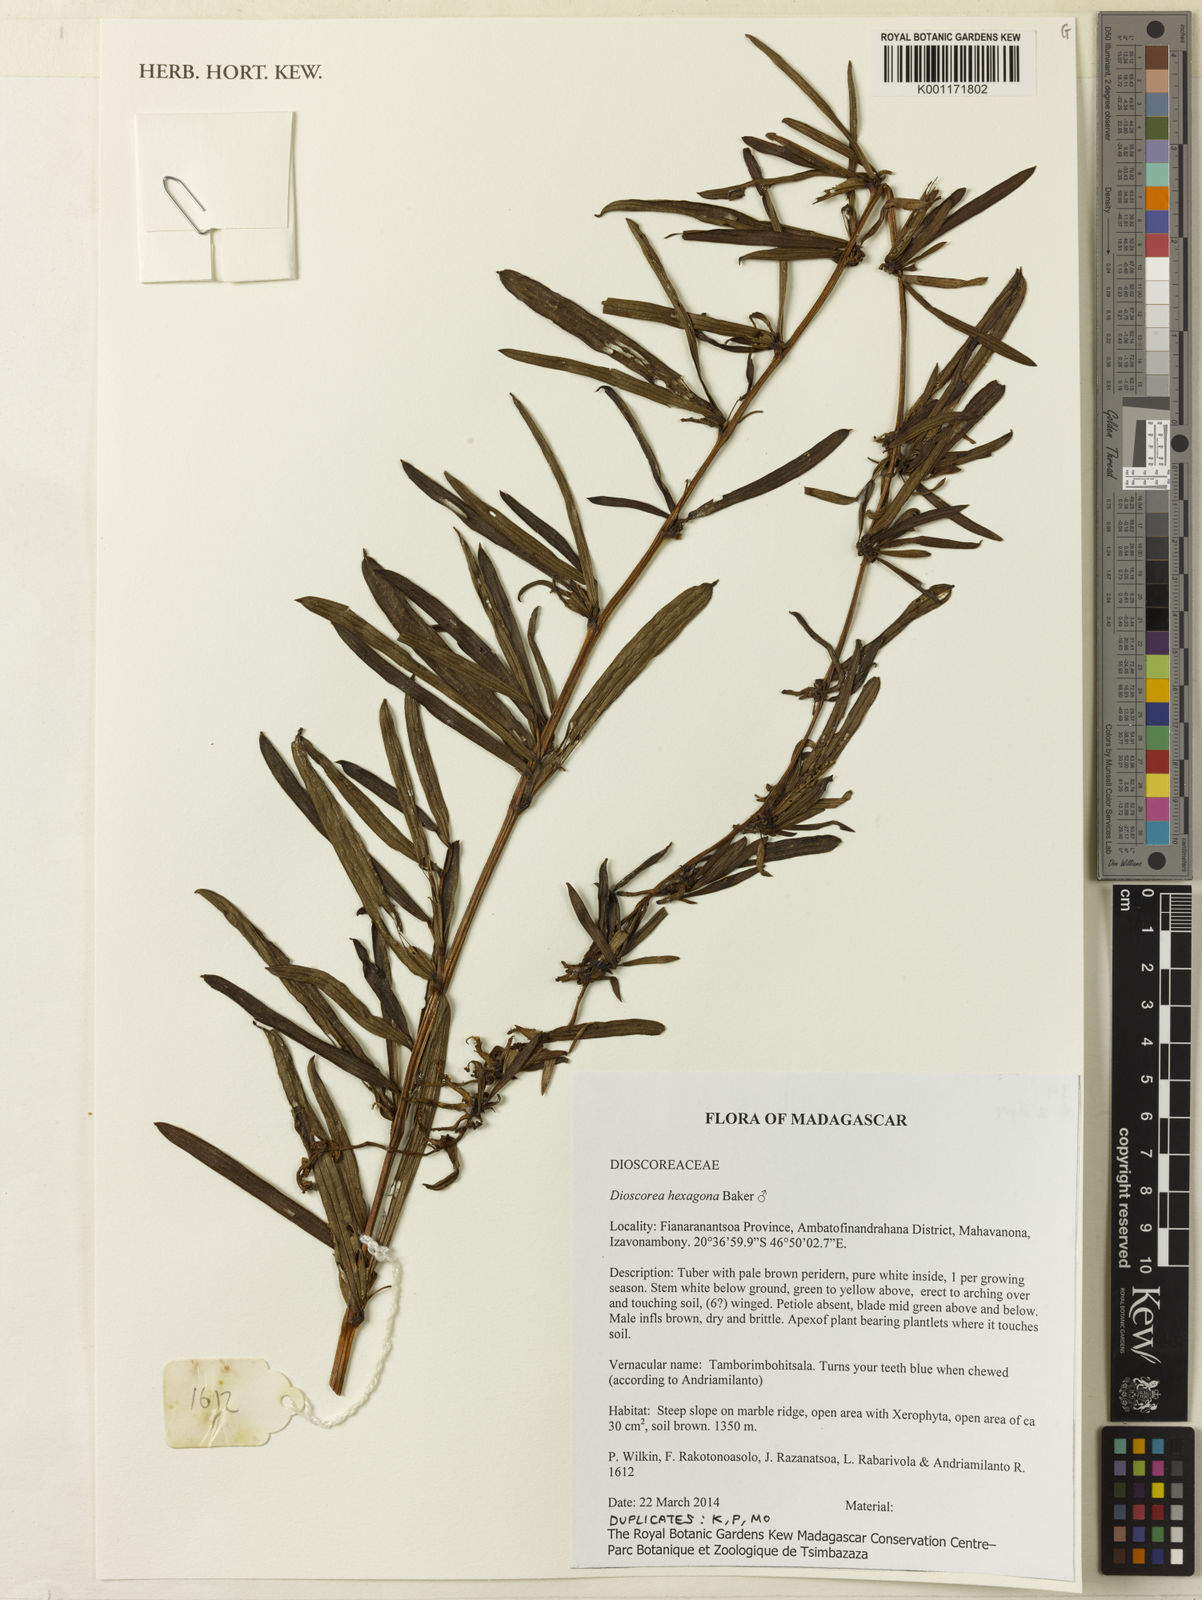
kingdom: Plantae
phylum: Tracheophyta
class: Liliopsida
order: Dioscoreales
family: Dioscoreaceae
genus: Dioscorea
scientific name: Dioscorea hexagona
